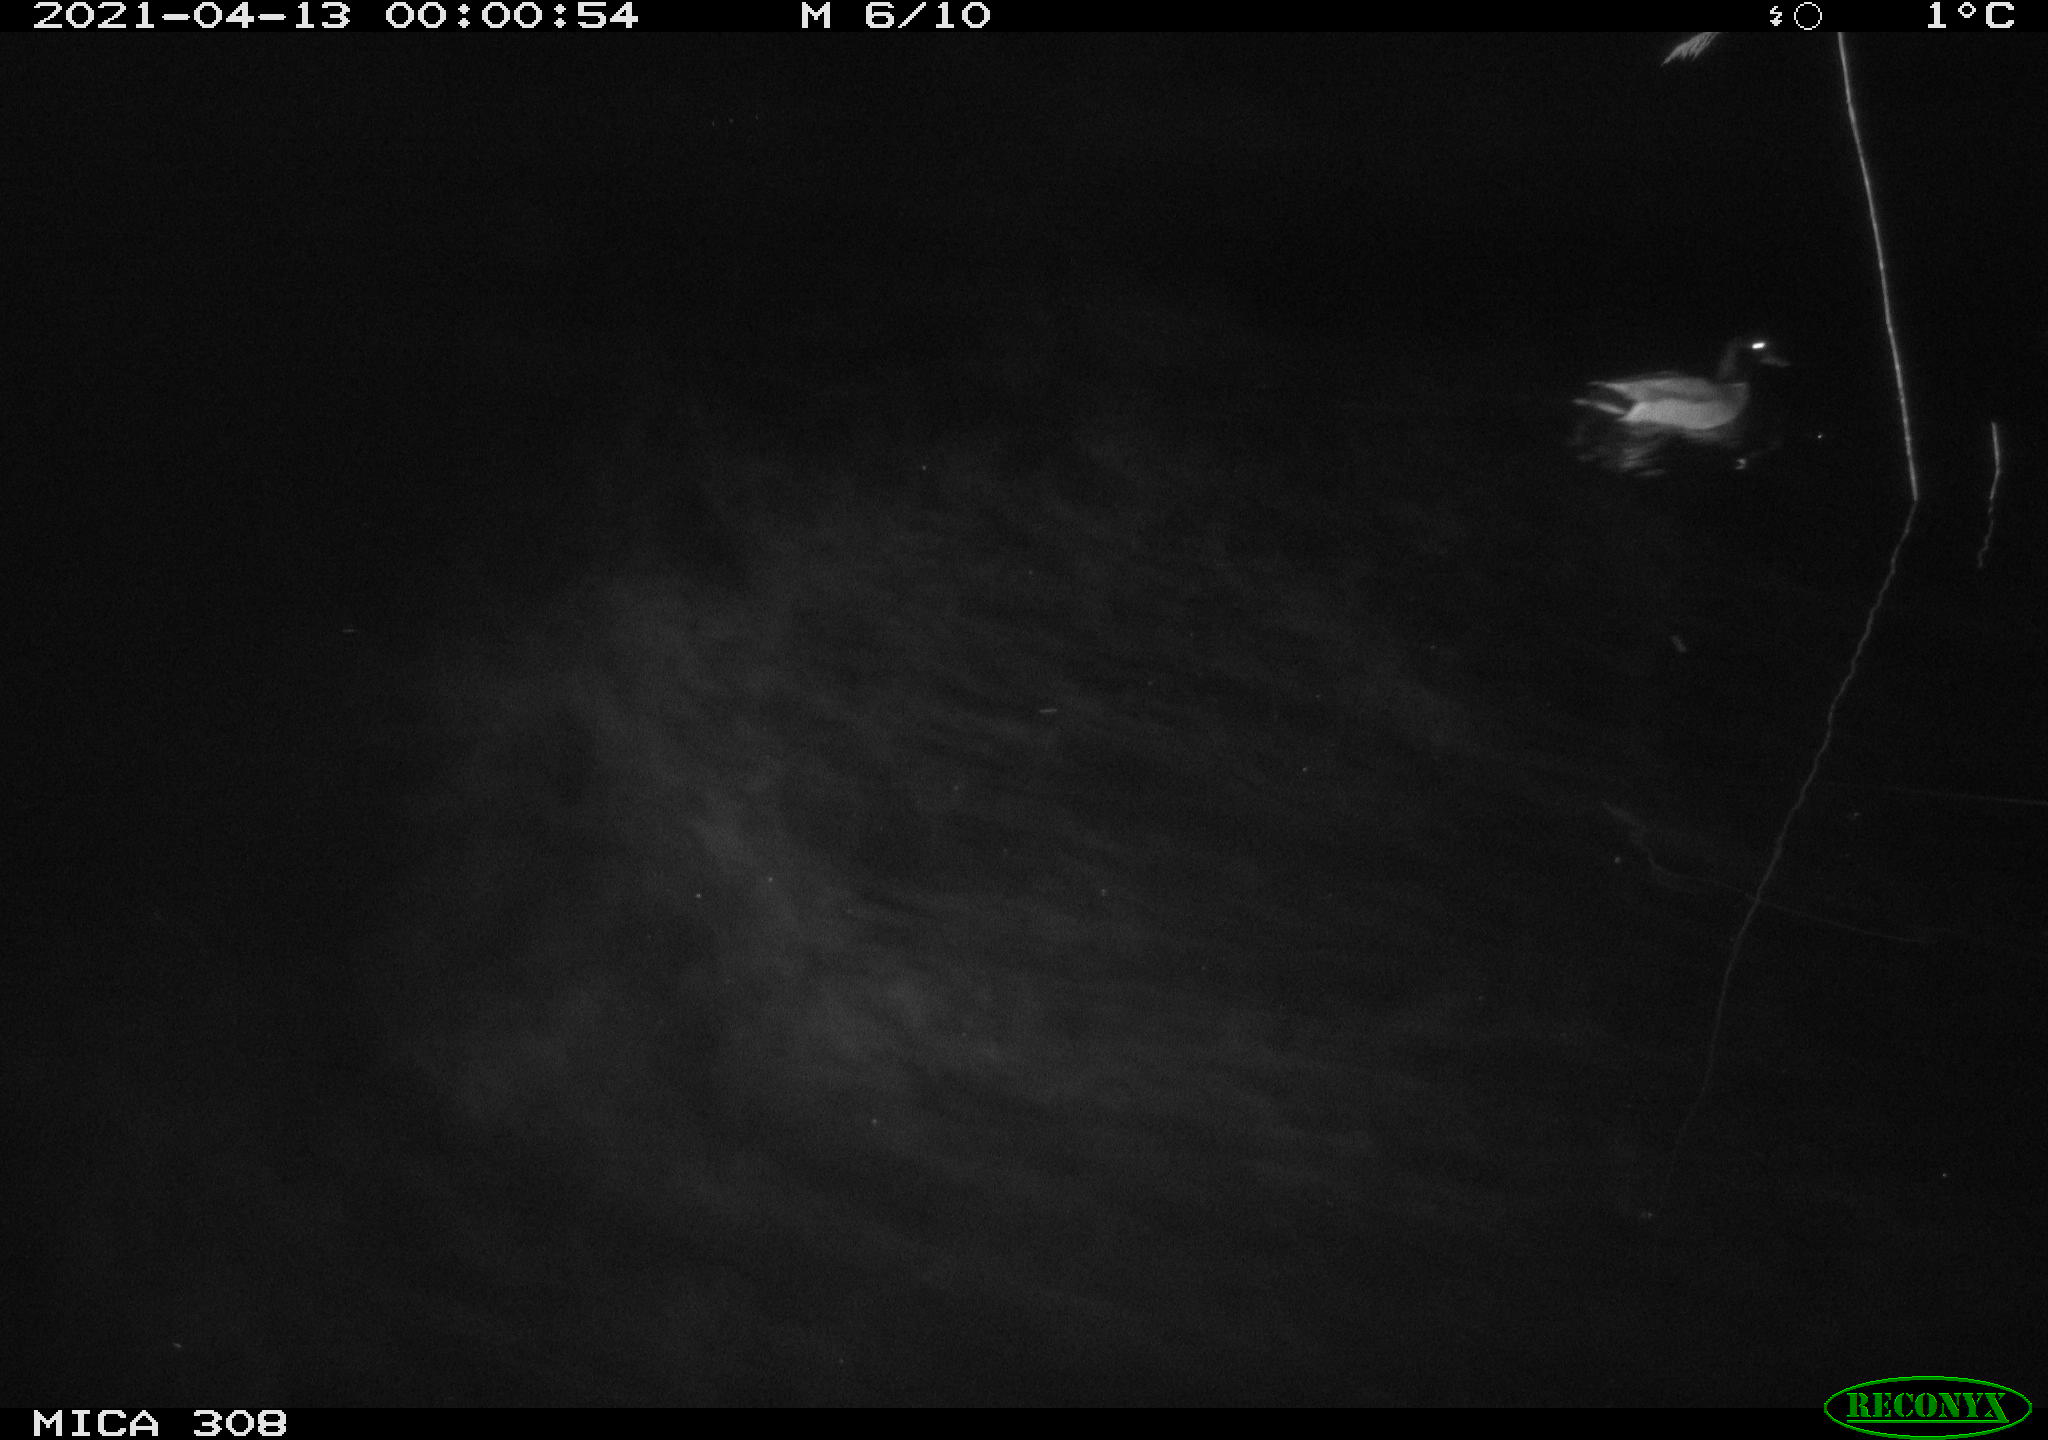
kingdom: Animalia
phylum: Chordata
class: Aves
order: Anseriformes
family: Anatidae
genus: Anas
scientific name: Anas platyrhynchos
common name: Mallard
